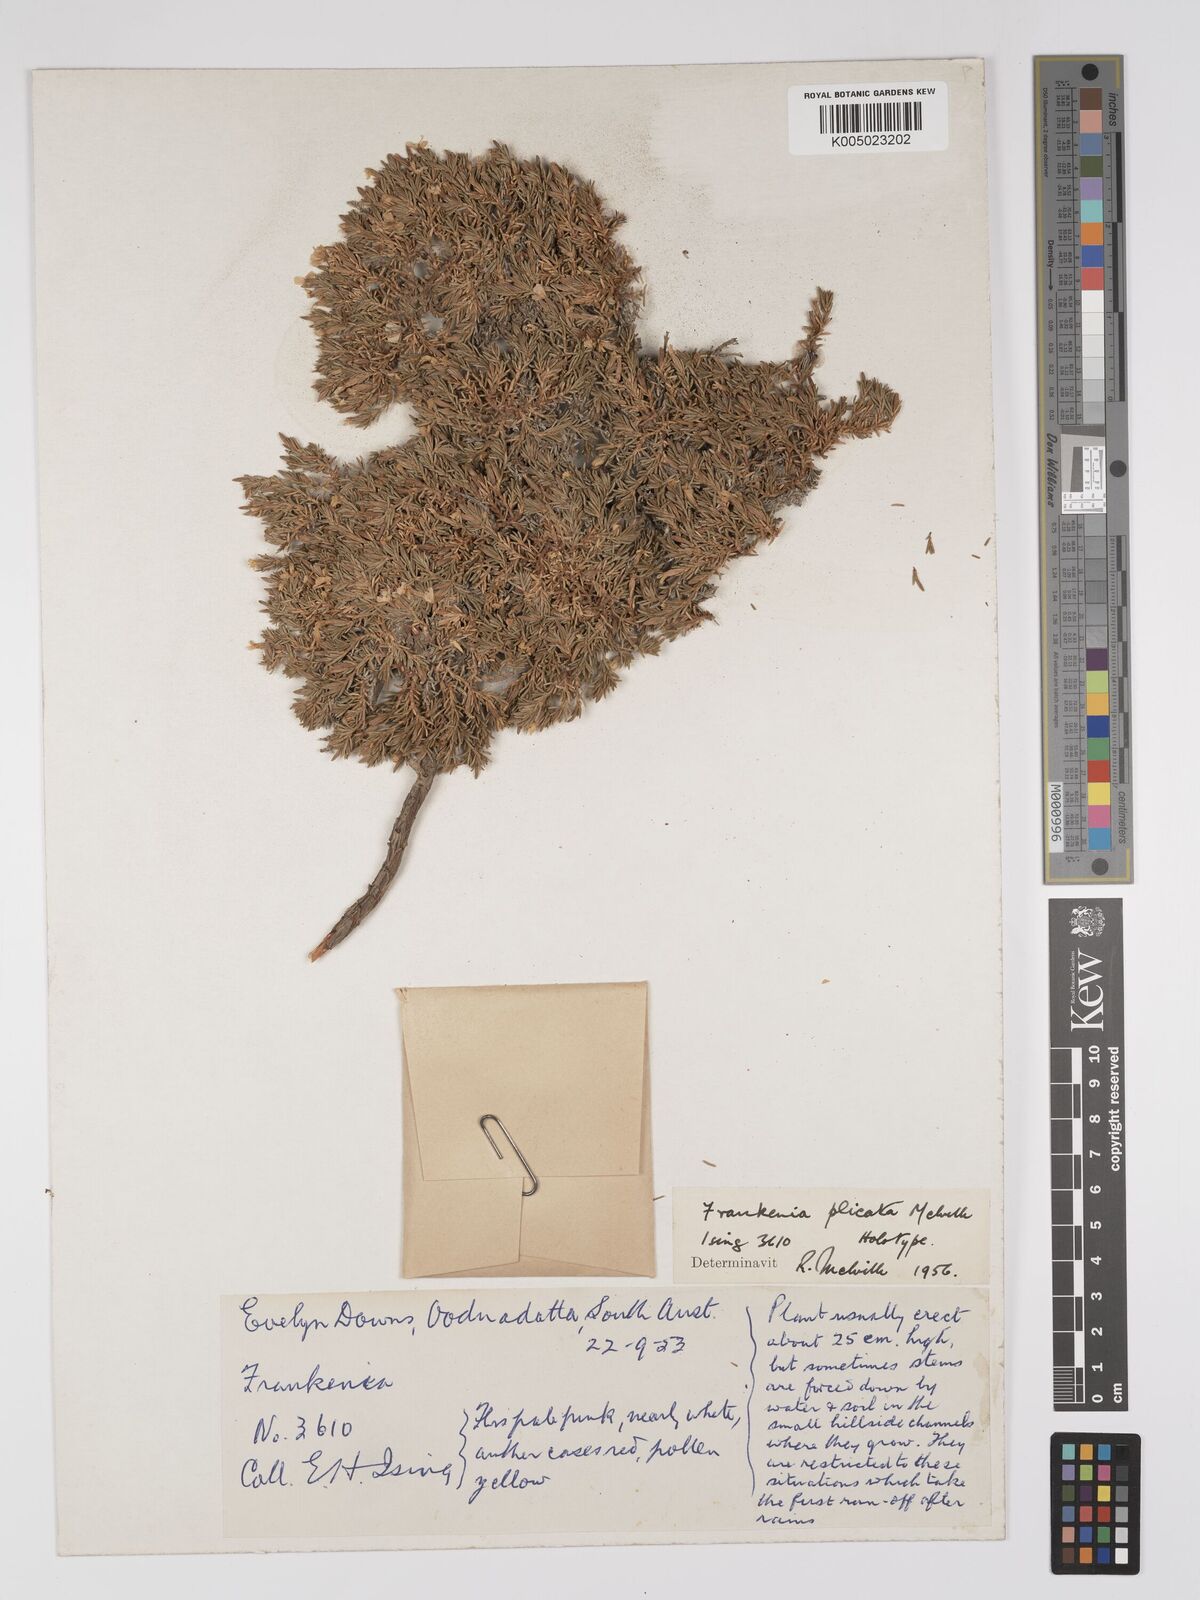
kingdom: Plantae
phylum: Tracheophyta
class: Magnoliopsida
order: Caryophyllales
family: Frankeniaceae
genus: Frankenia
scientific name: Frankenia plicata
